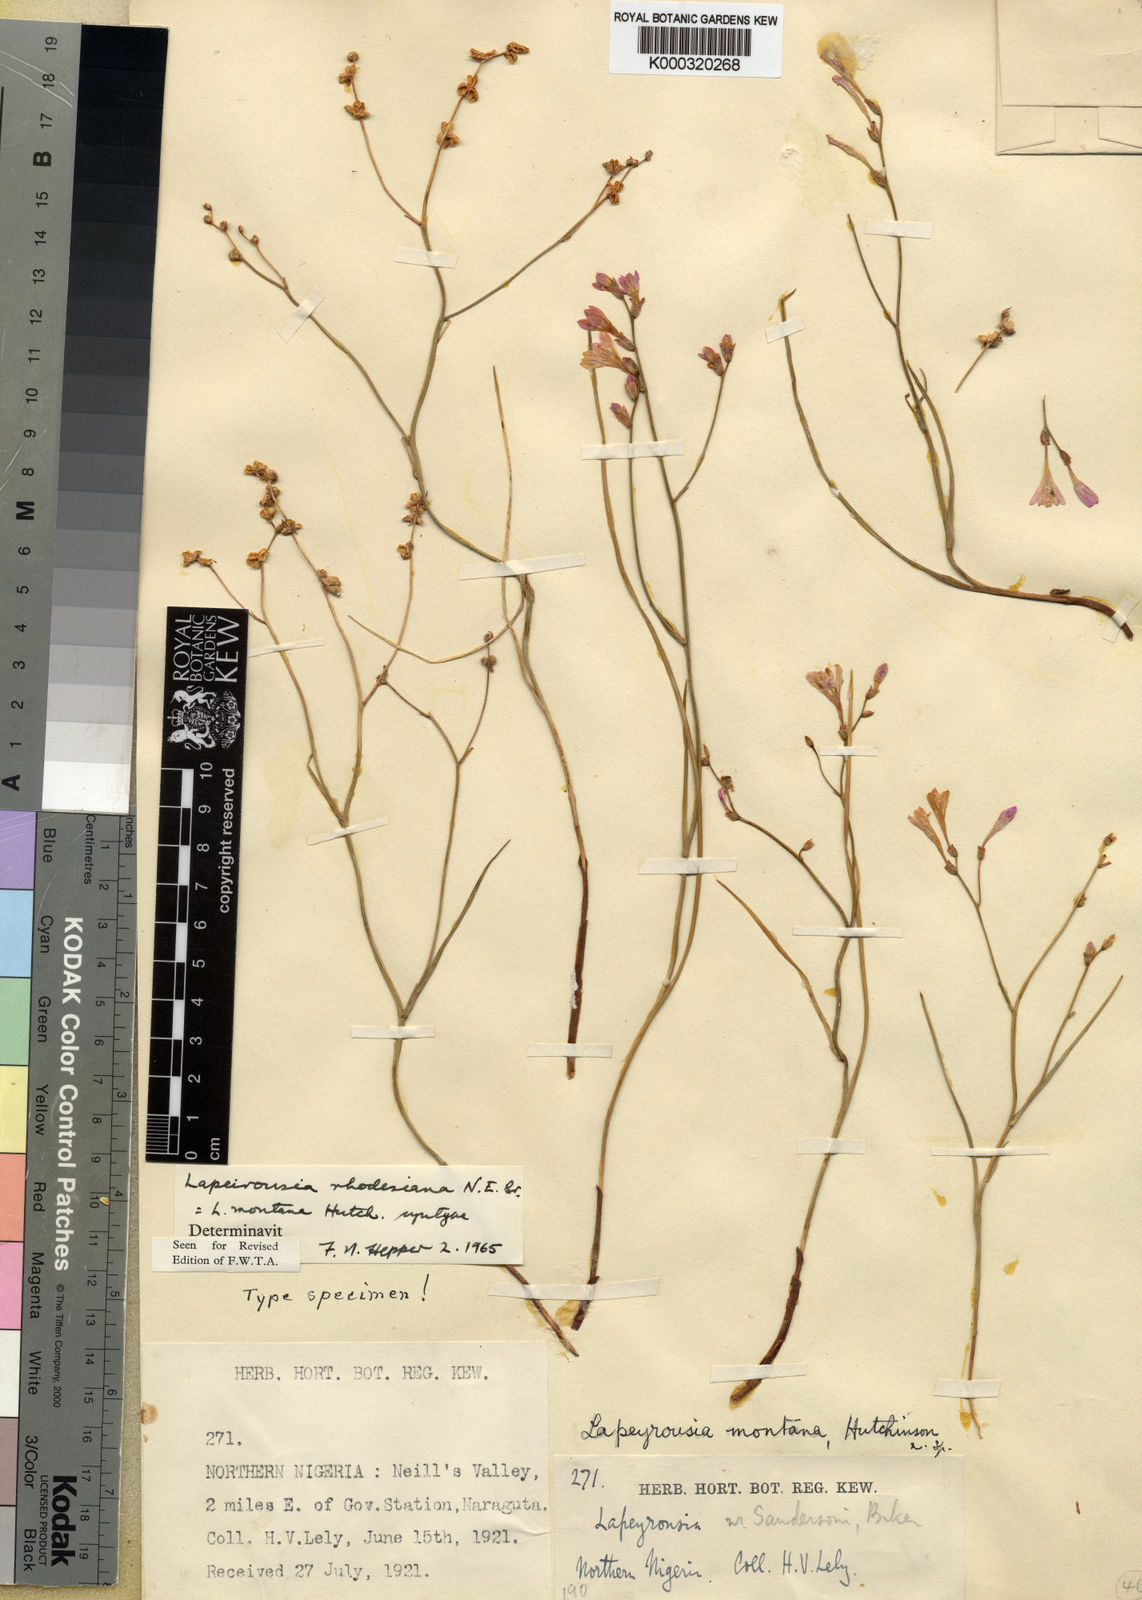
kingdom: Plantae
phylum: Tracheophyta
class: Liliopsida
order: Asparagales
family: Iridaceae
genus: Afrosolen
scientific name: Afrosolen erythranthus
